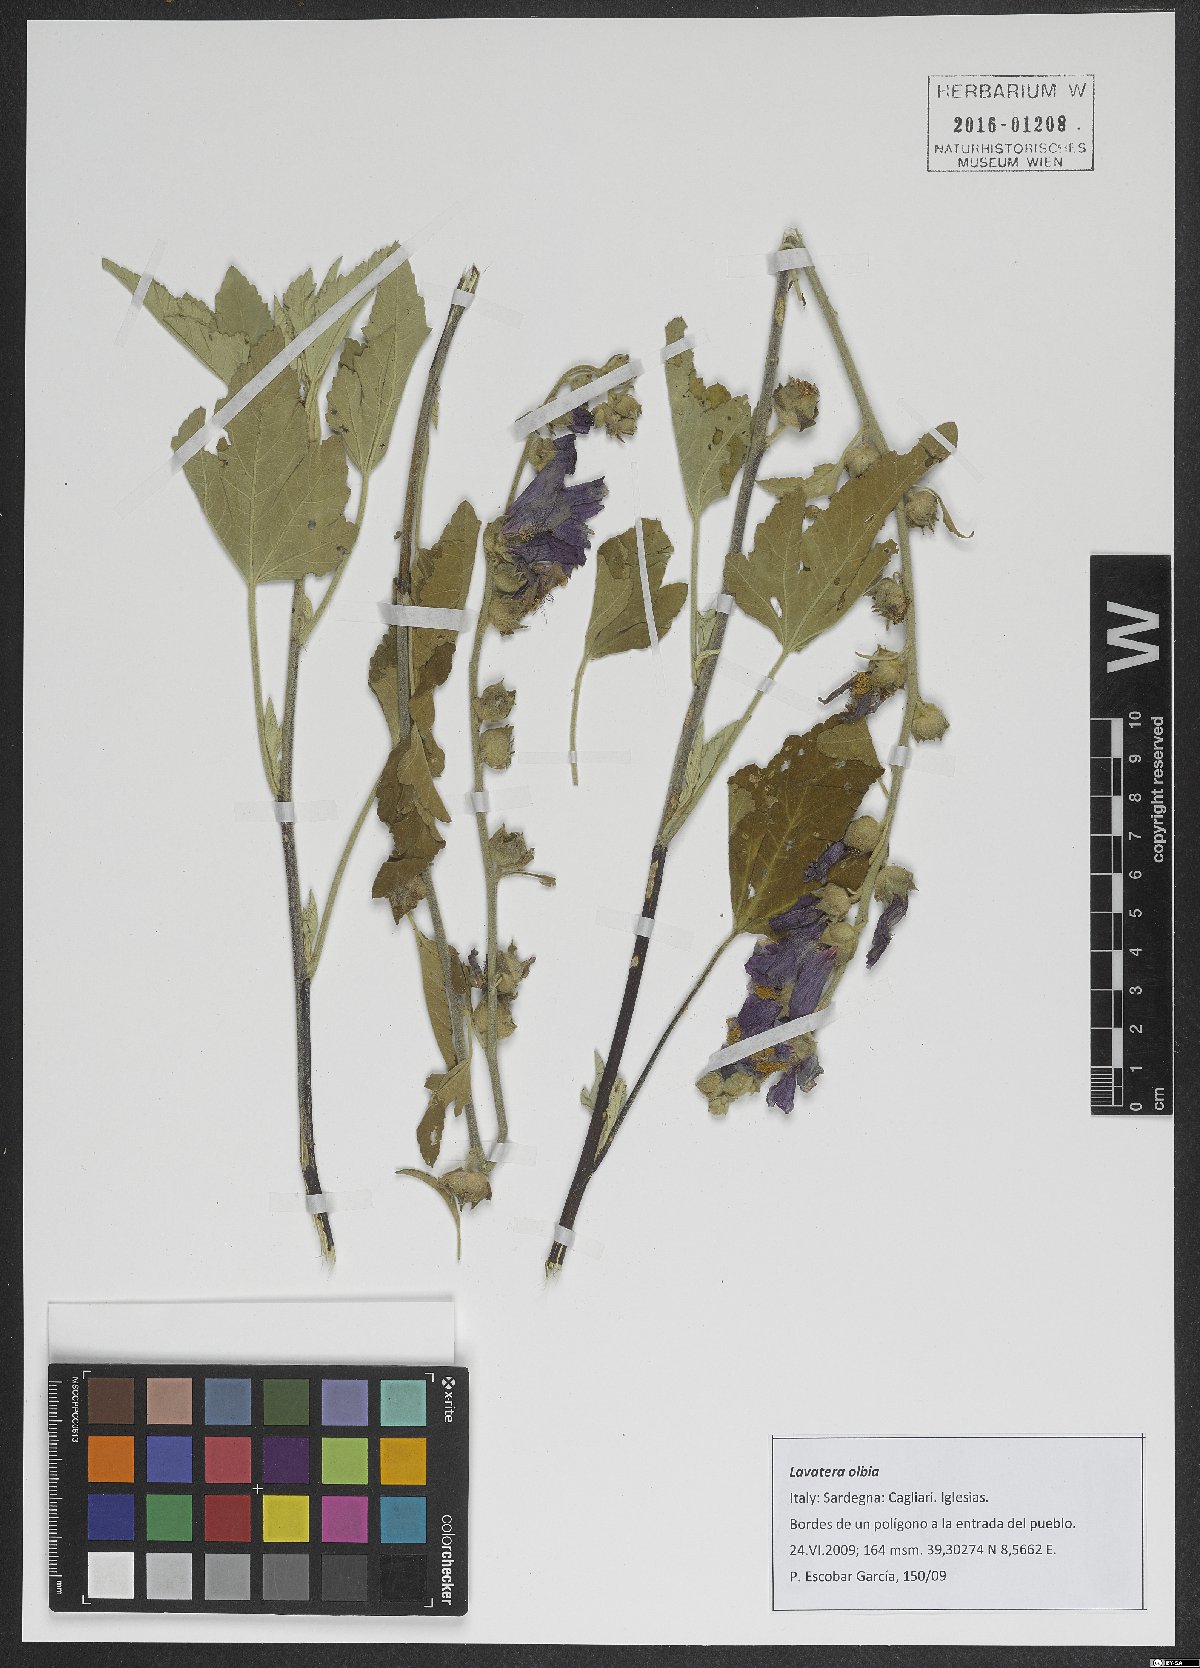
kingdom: Plantae
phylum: Tracheophyta
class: Magnoliopsida
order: Malvales
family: Malvaceae
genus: Malva
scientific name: Malva olbia
